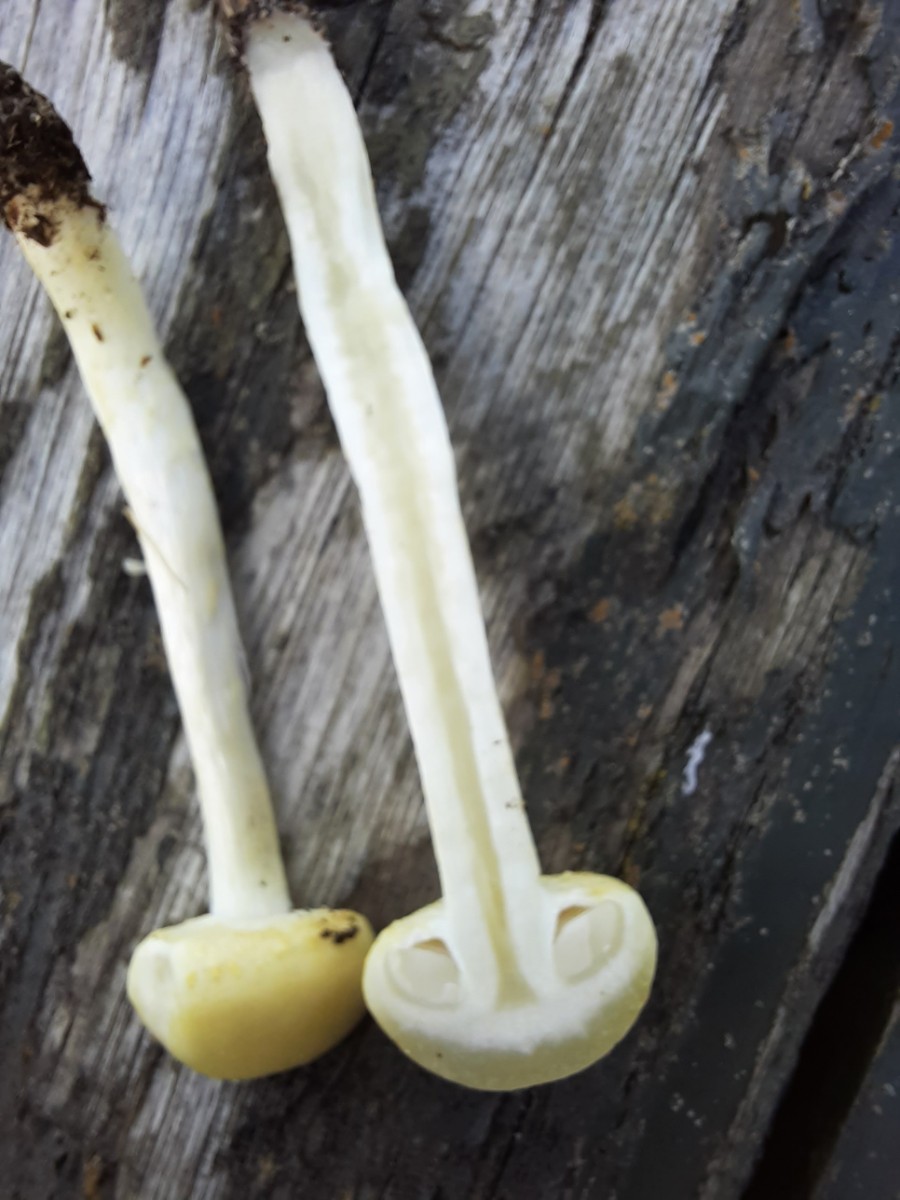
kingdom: Fungi
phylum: Basidiomycota
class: Agaricomycetes
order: Agaricales
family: Strophariaceae
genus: Agrocybe
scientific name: Agrocybe dura
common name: fastkødet agerhat
